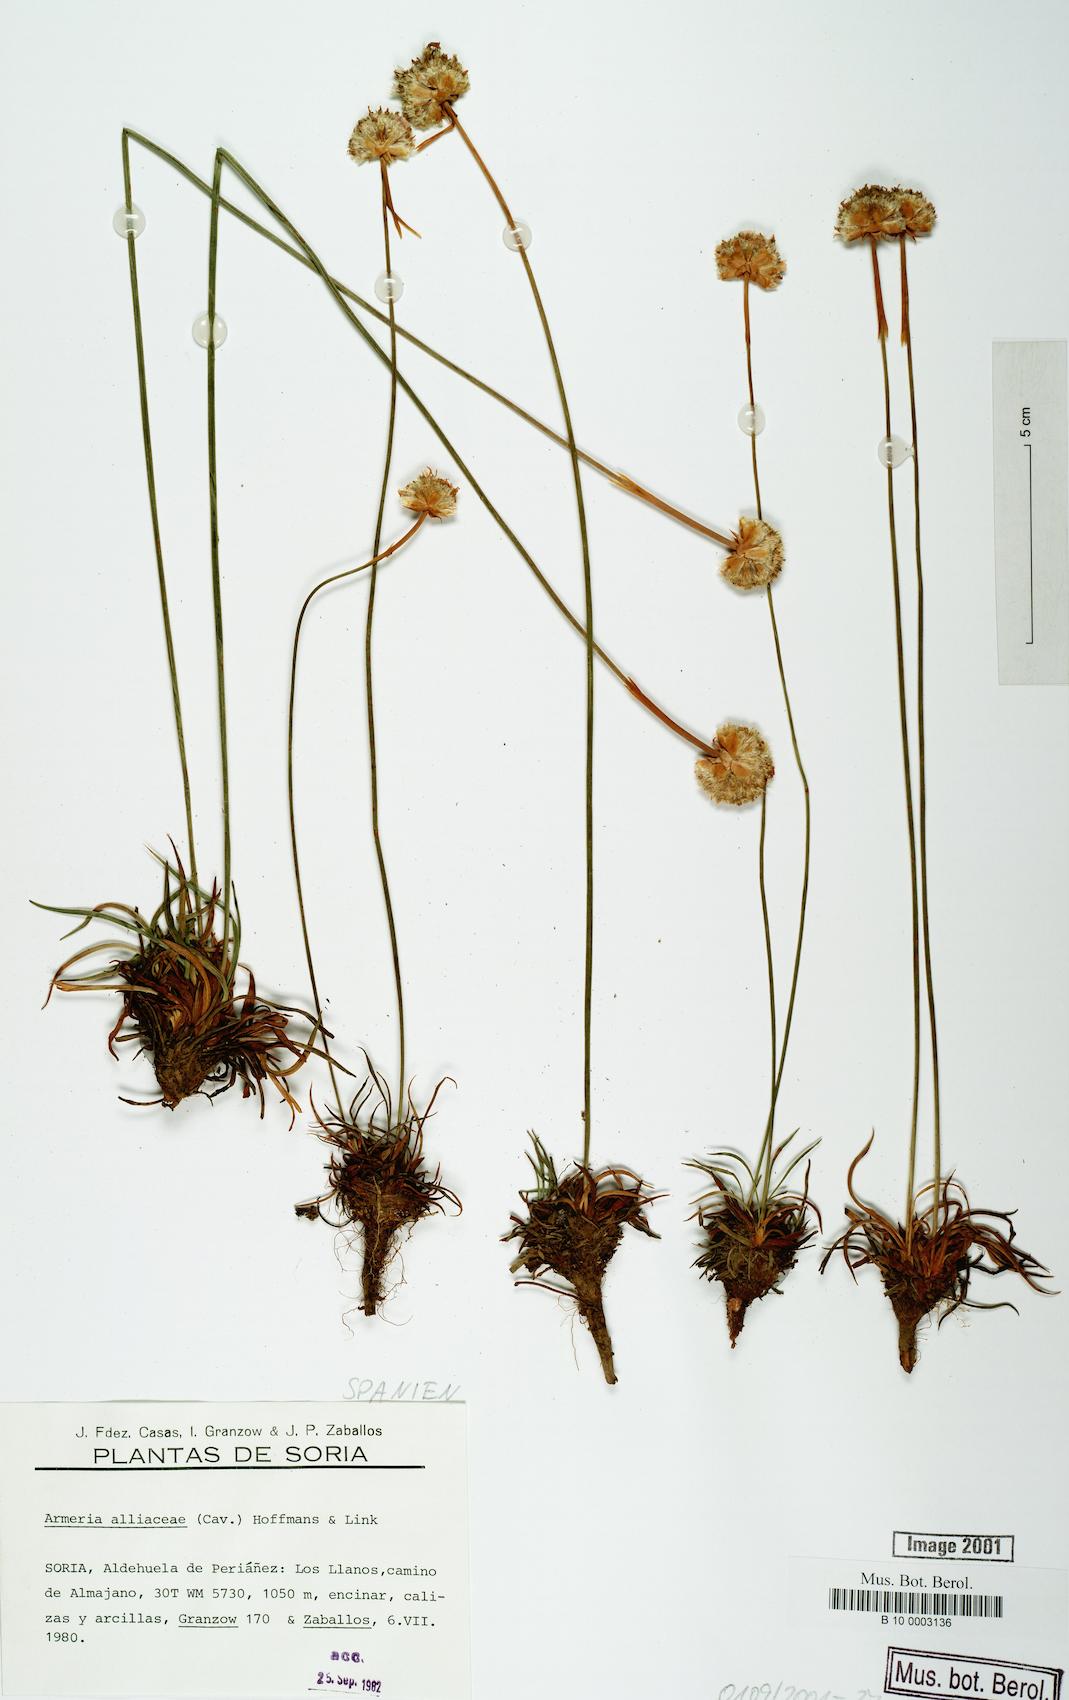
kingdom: Plantae
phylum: Tracheophyta
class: Magnoliopsida
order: Caryophyllales
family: Plumbaginaceae
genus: Armeria
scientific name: Armeria alliacea
